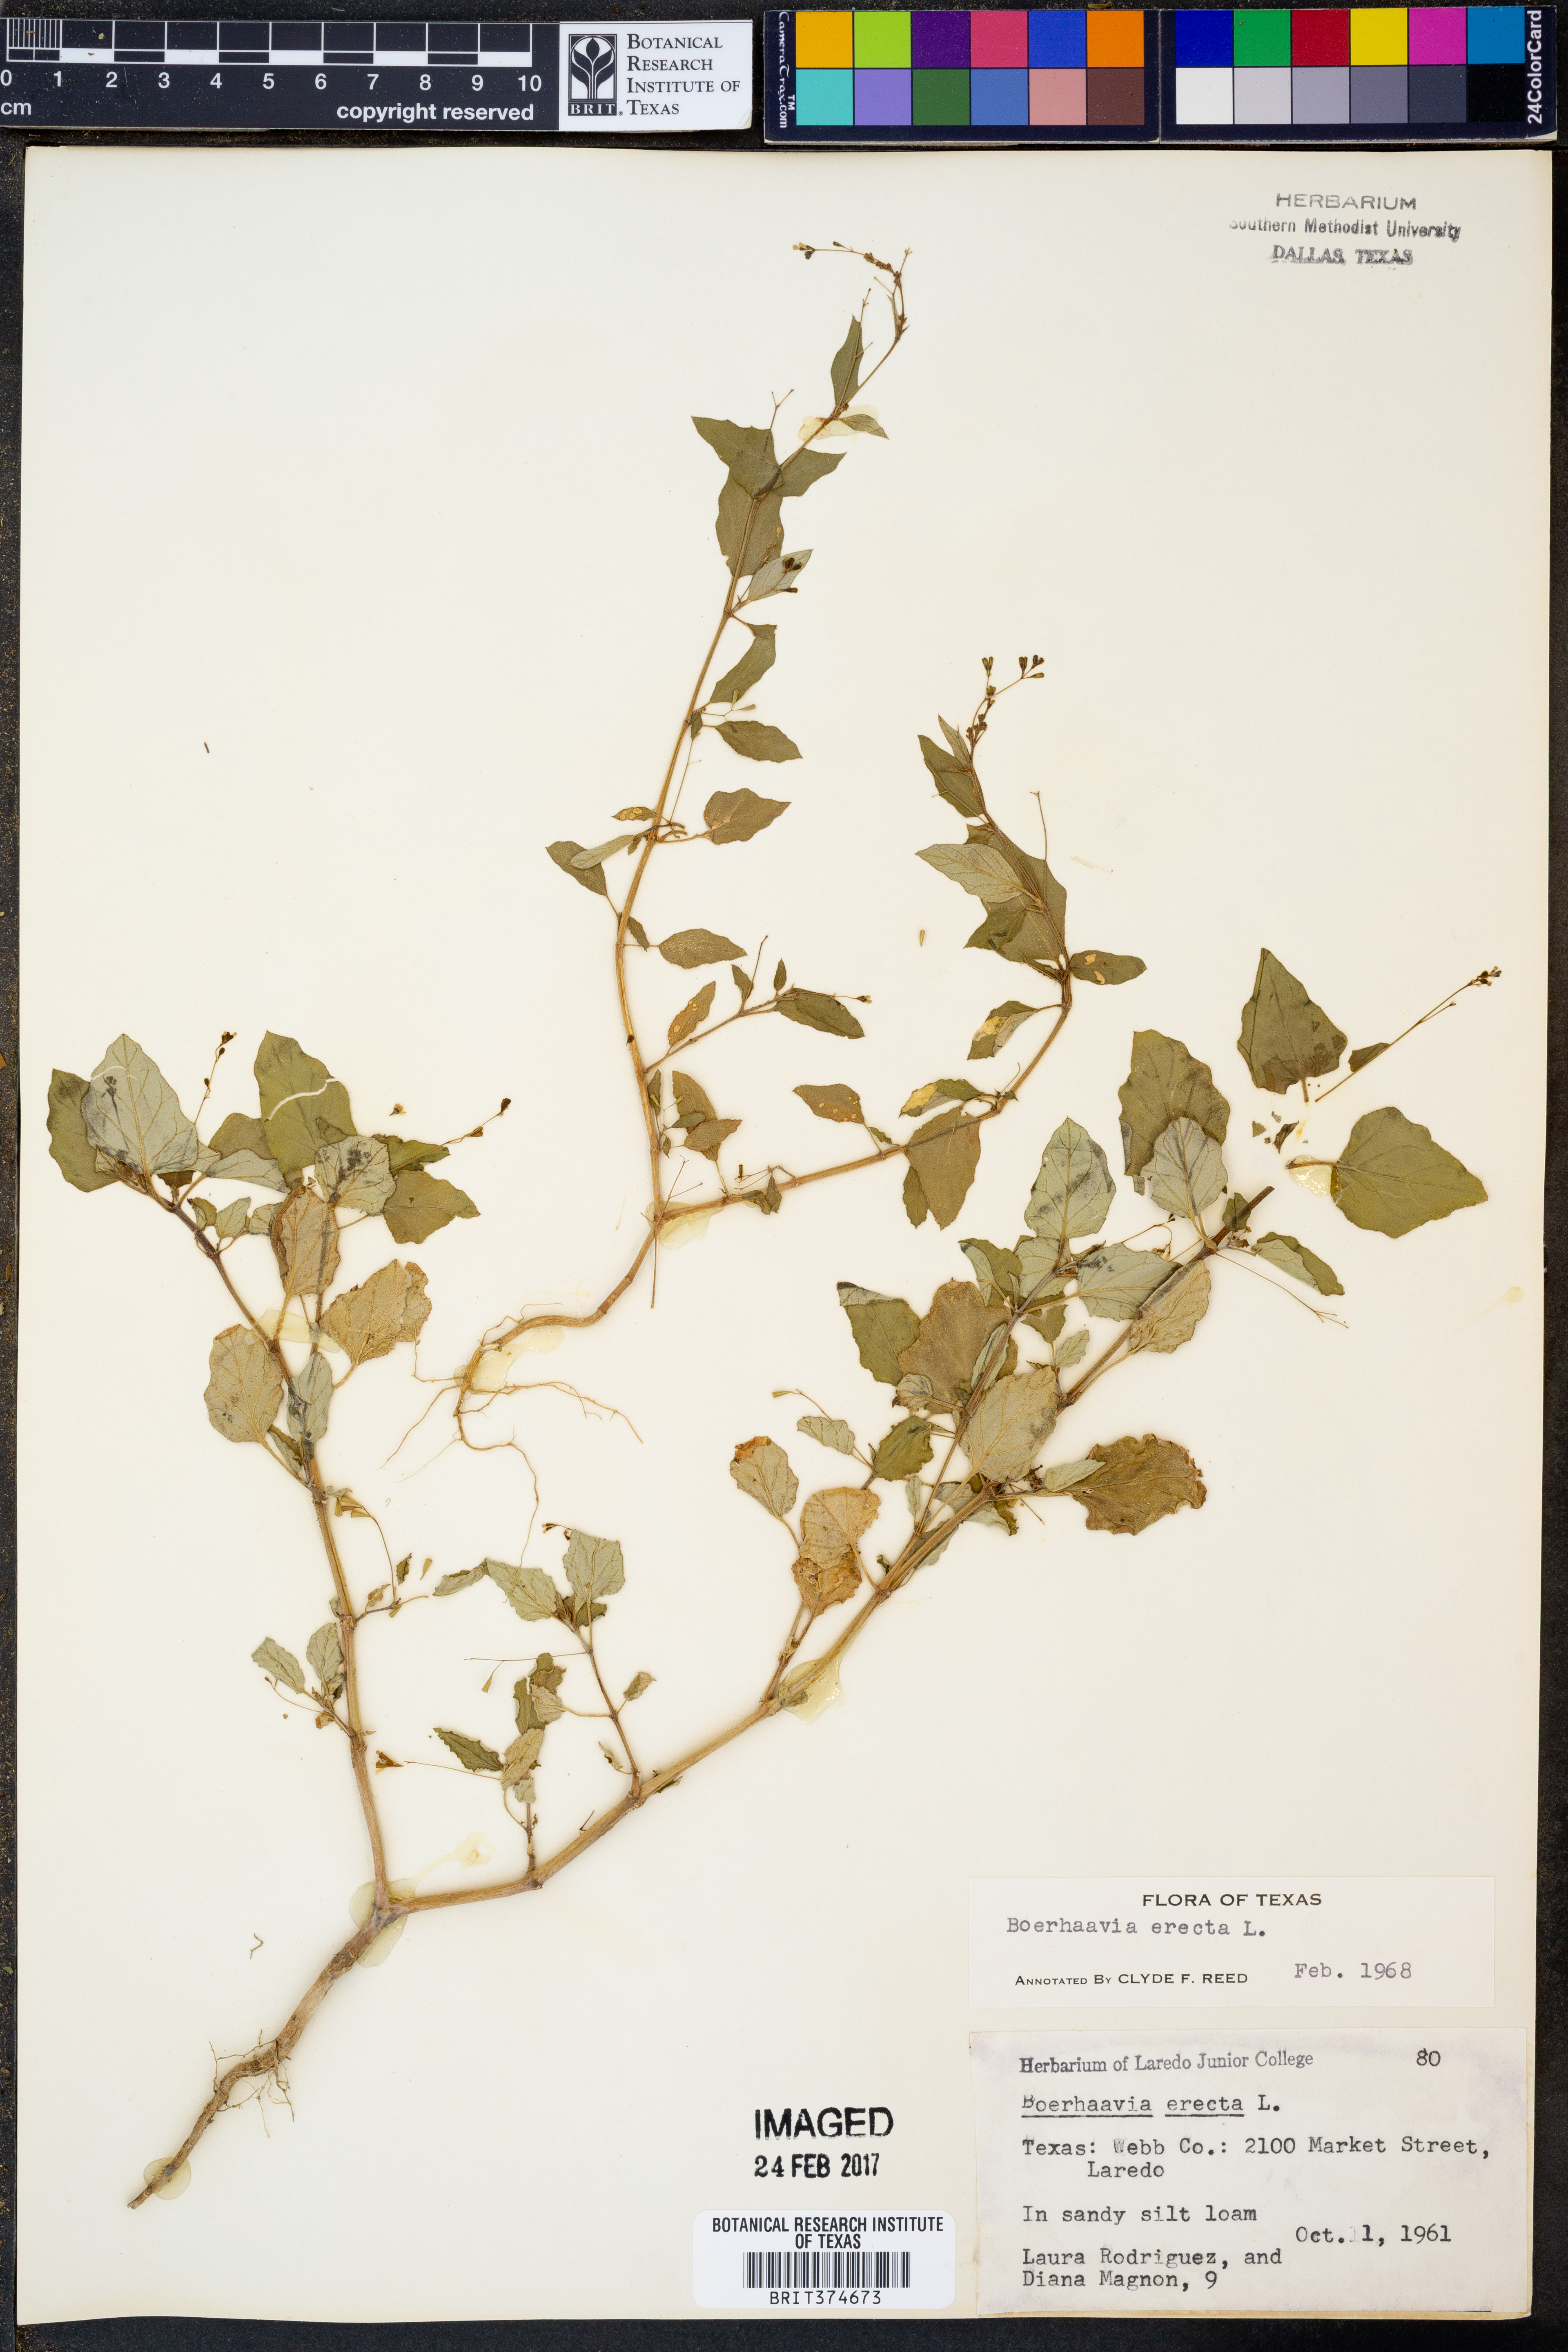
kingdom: Plantae
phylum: Tracheophyta
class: Magnoliopsida
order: Caryophyllales
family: Nyctaginaceae
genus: Boerhavia
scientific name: Boerhavia erecta
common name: Erect spiderling
